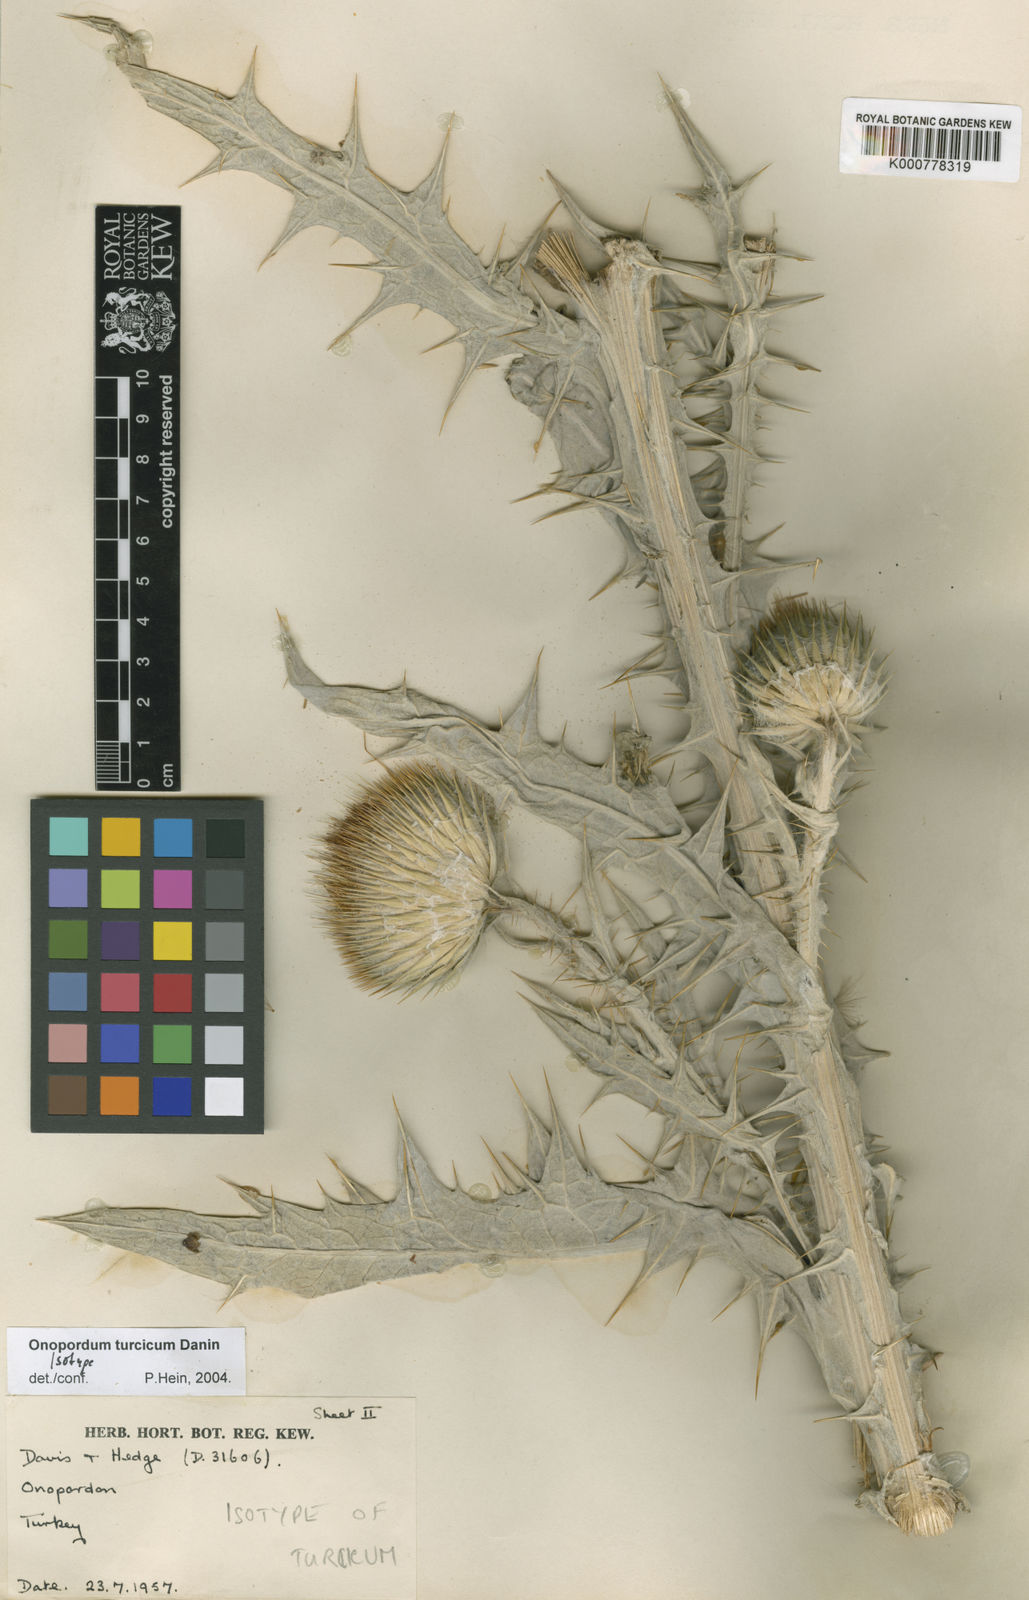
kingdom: Plantae
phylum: Tracheophyta
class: Magnoliopsida
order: Asterales
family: Asteraceae
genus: Onopordum
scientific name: Onopordum turcicum
